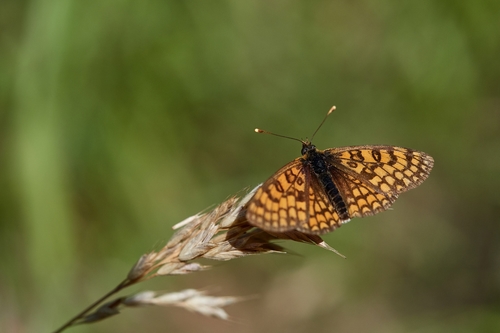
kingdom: Animalia
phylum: Arthropoda
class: Insecta
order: Lepidoptera
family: Nymphalidae
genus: Melitaea
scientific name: Melitaea deione
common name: Provençal fritillary
